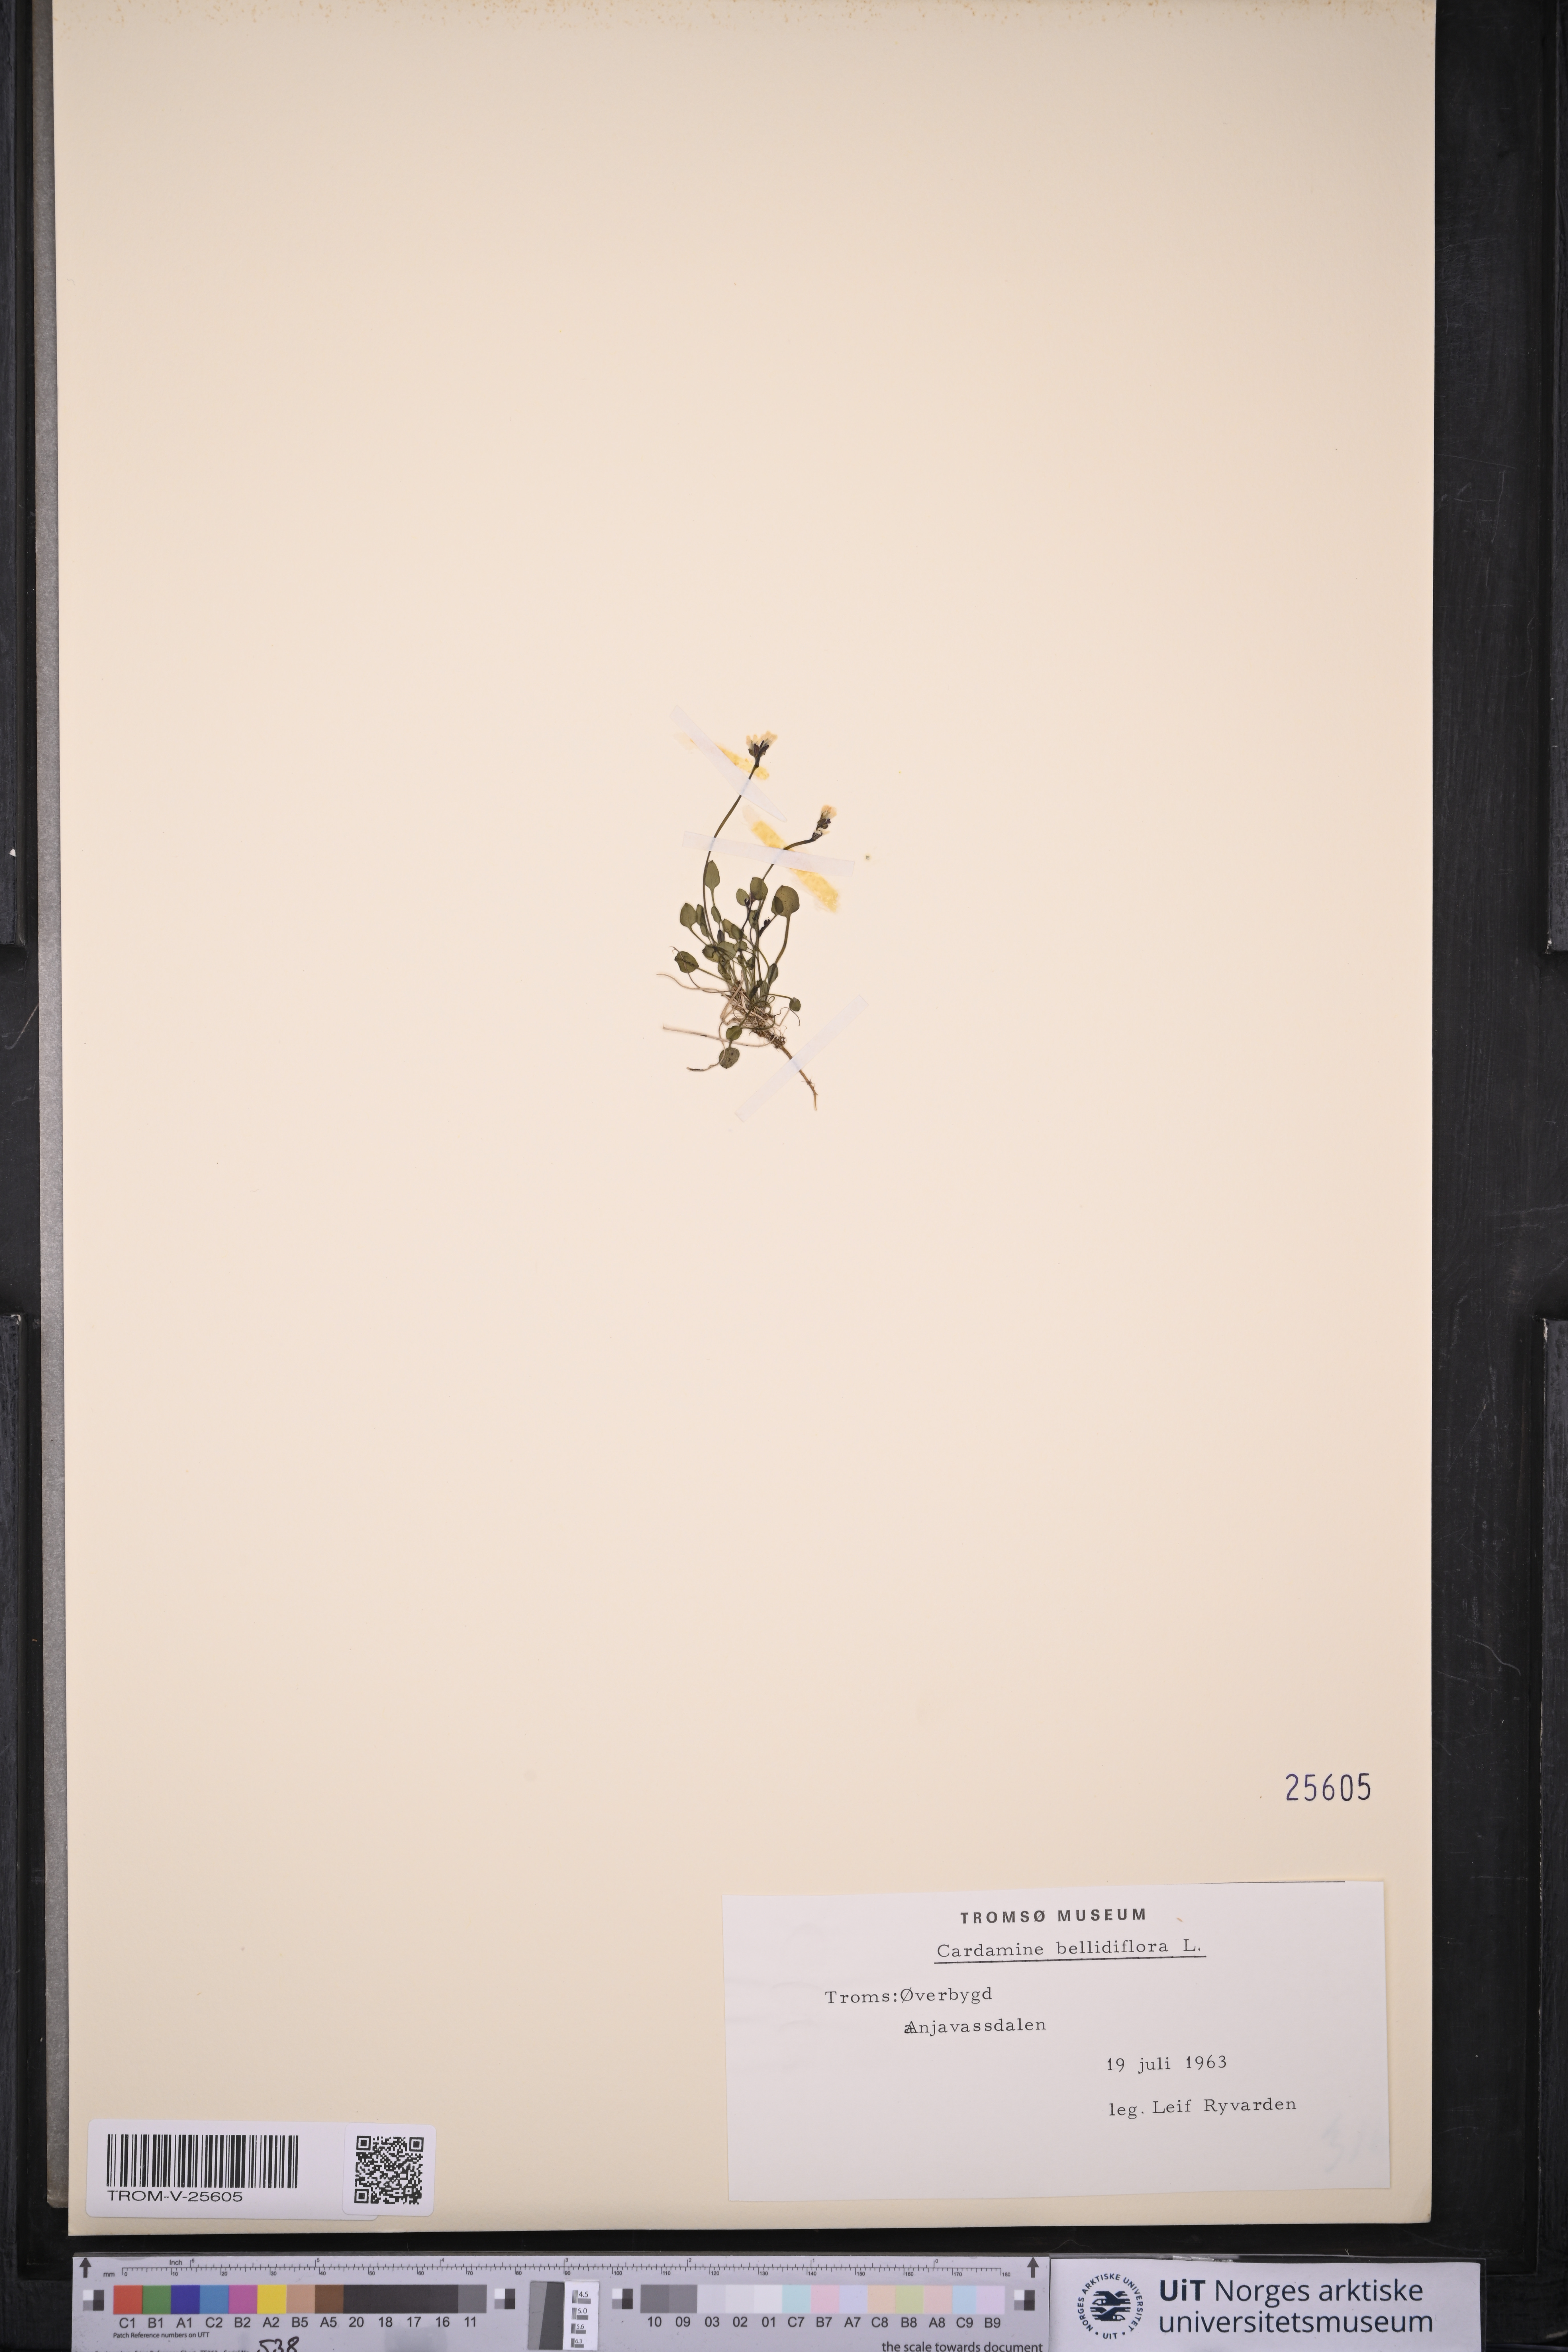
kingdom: Plantae
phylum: Tracheophyta
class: Magnoliopsida
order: Brassicales
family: Brassicaceae
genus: Cardamine
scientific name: Cardamine bellidifolia
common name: Alpine bittercress
